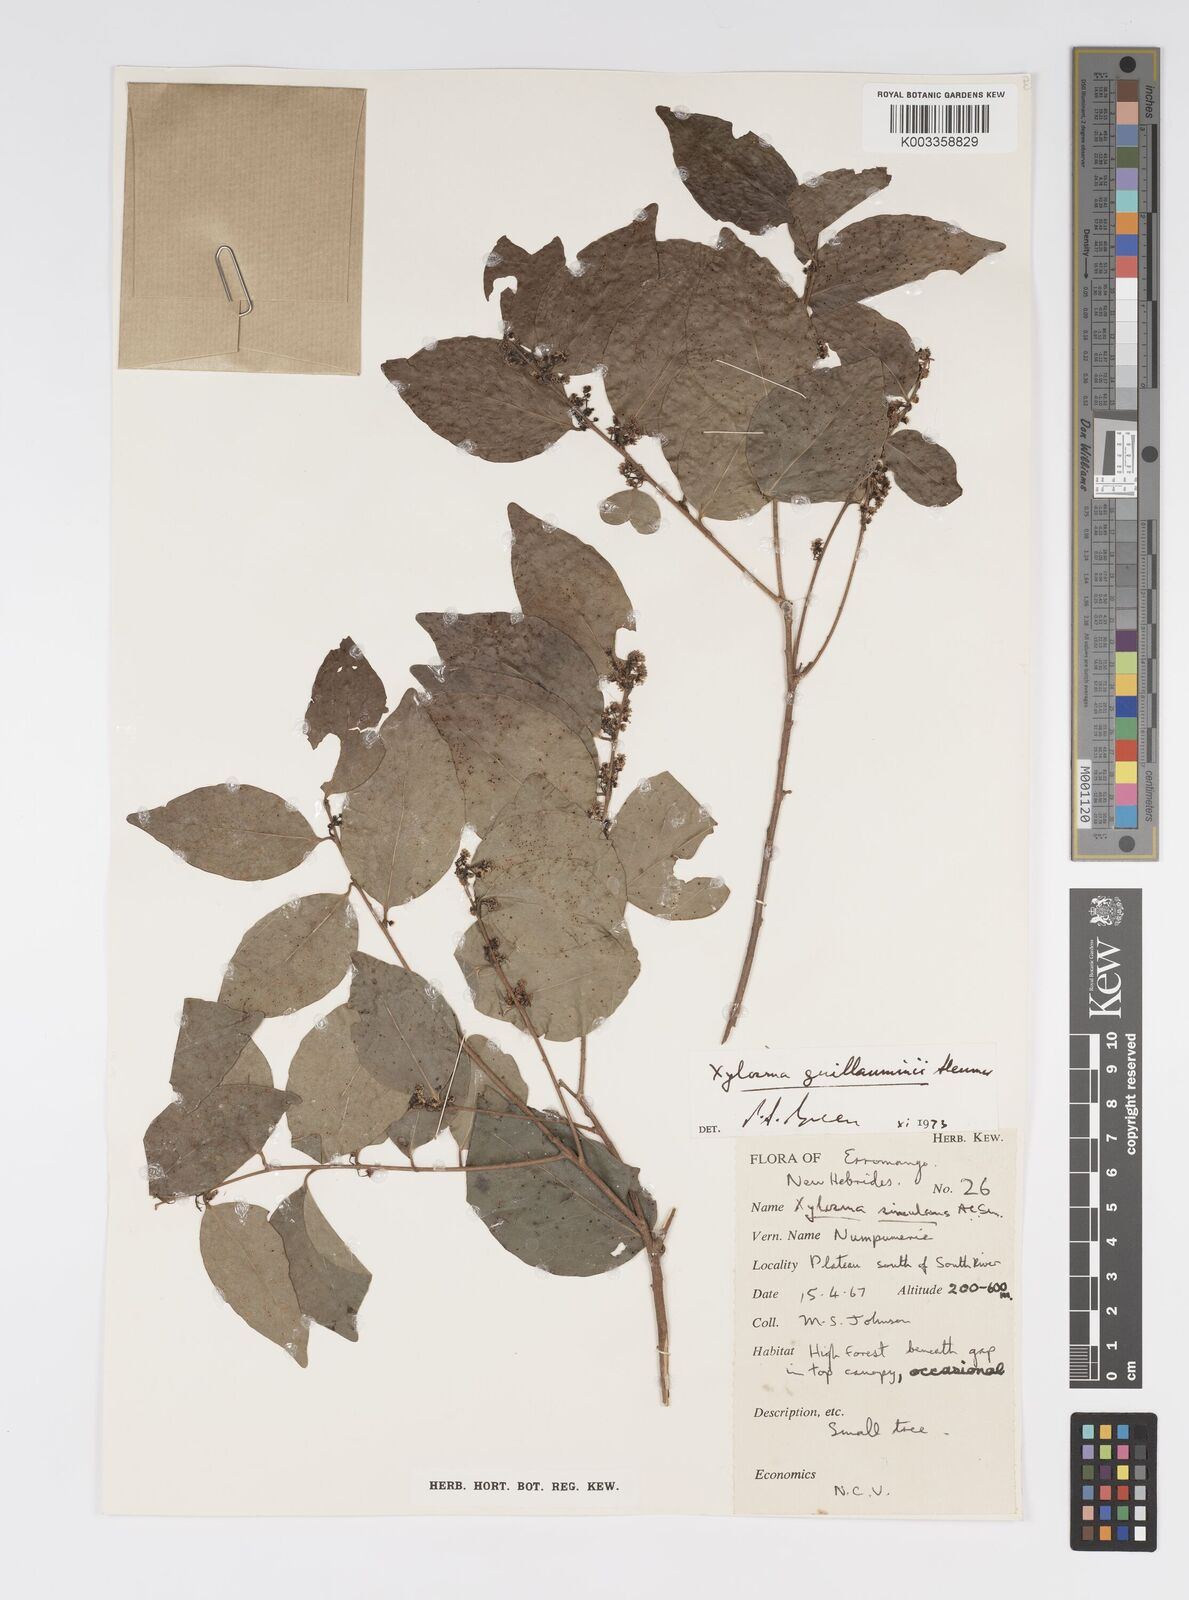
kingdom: Plantae
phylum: Tracheophyta
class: Magnoliopsida
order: Malpighiales
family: Salicaceae
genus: Xylosma
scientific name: Xylosma lifuana
